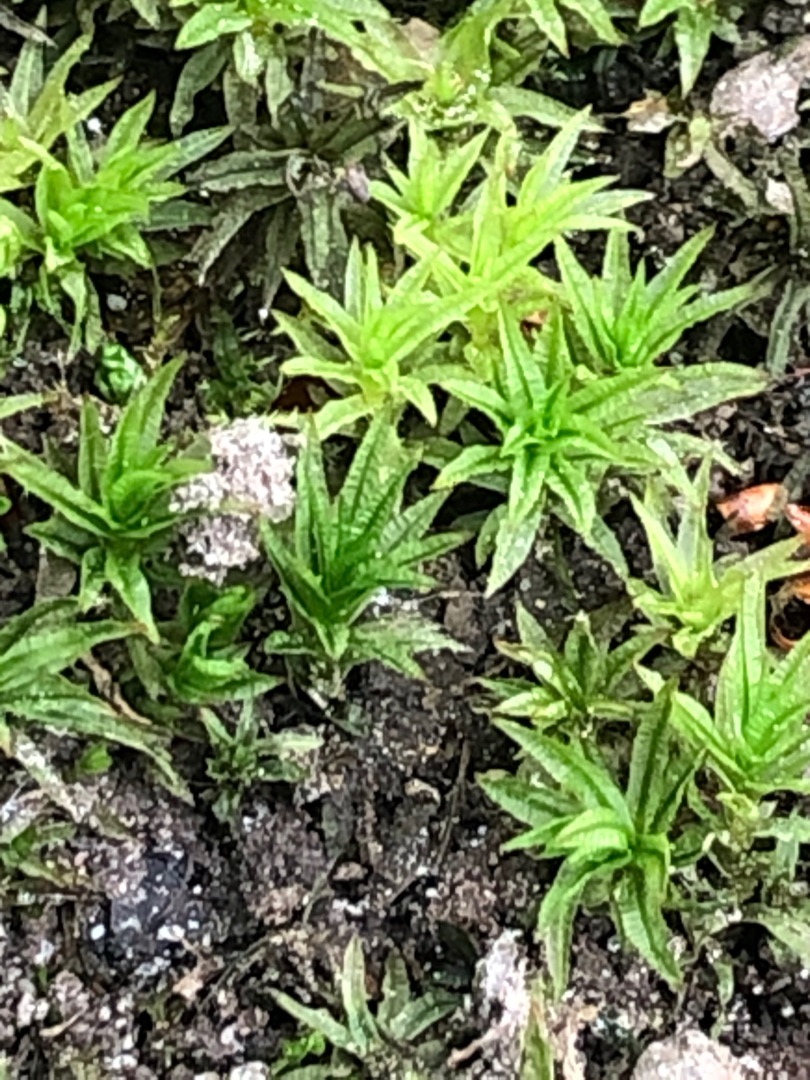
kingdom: Plantae
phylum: Bryophyta
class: Polytrichopsida
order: Polytrichales
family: Polytrichaceae
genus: Atrichum
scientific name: Atrichum undulatum
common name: Bølget katrinemos
